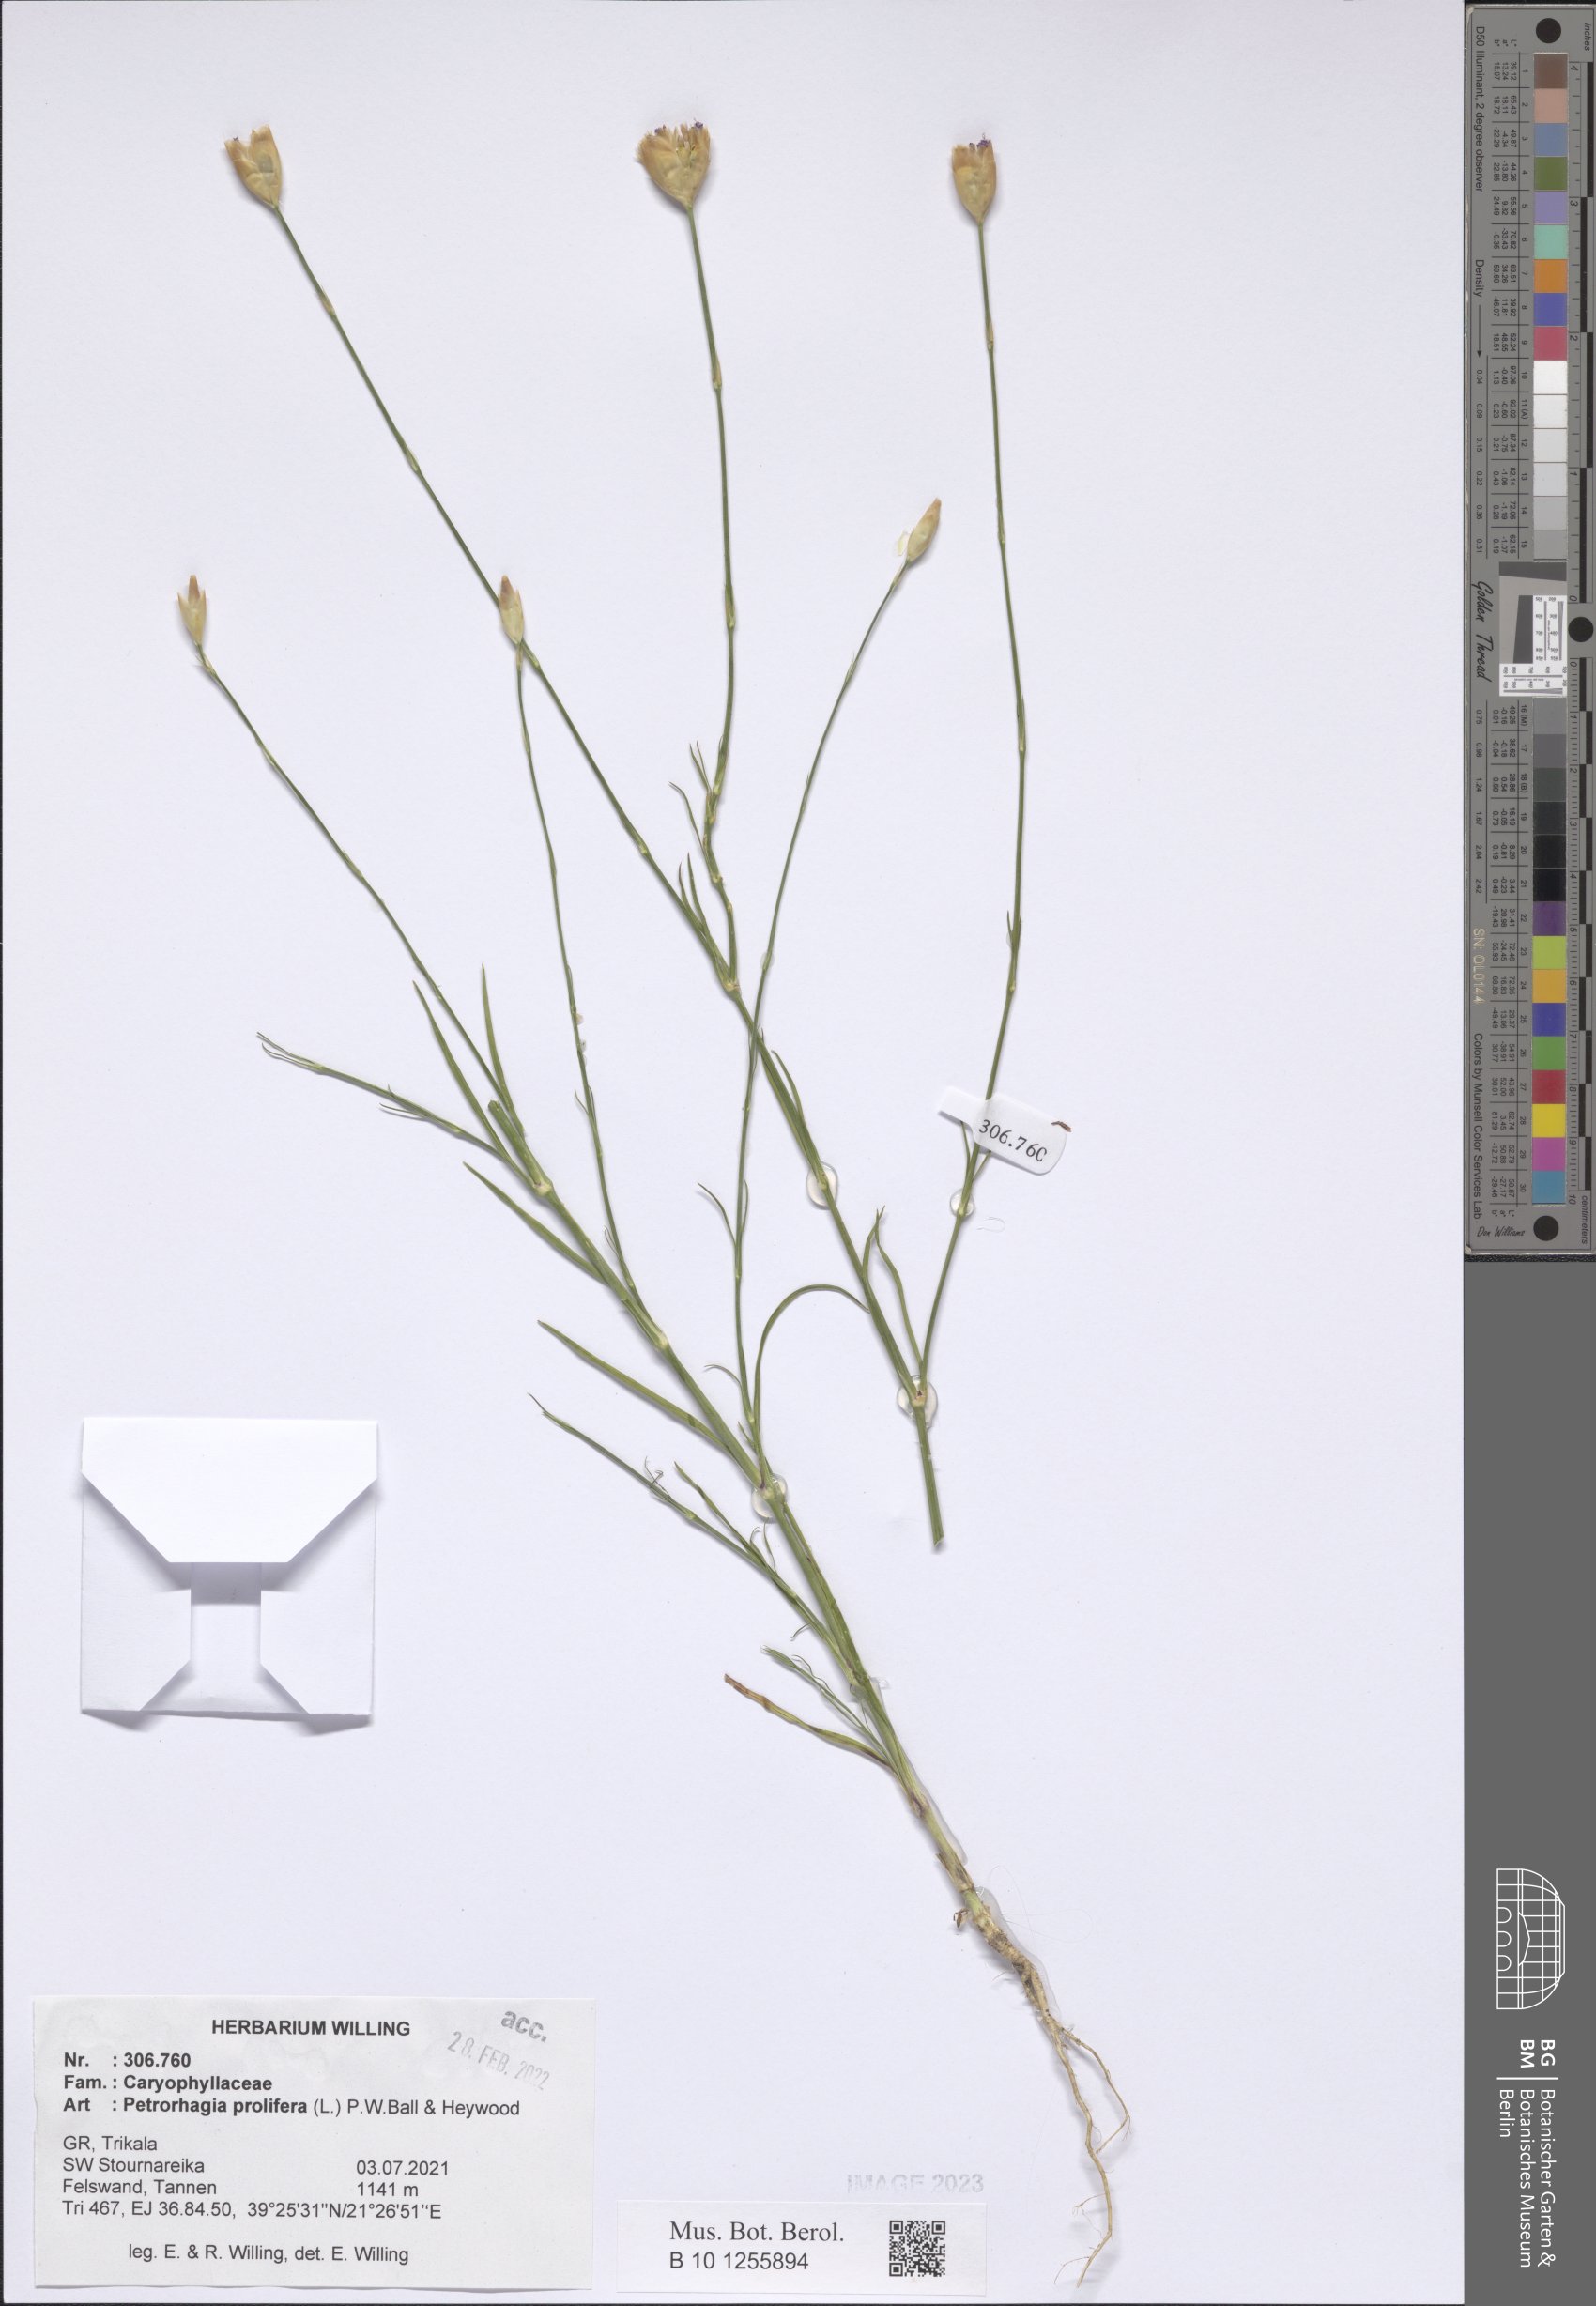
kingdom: Plantae
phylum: Tracheophyta
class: Magnoliopsida
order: Caryophyllales
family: Caryophyllaceae
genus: Petrorhagia
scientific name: Petrorhagia prolifera
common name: Proliferous pink
